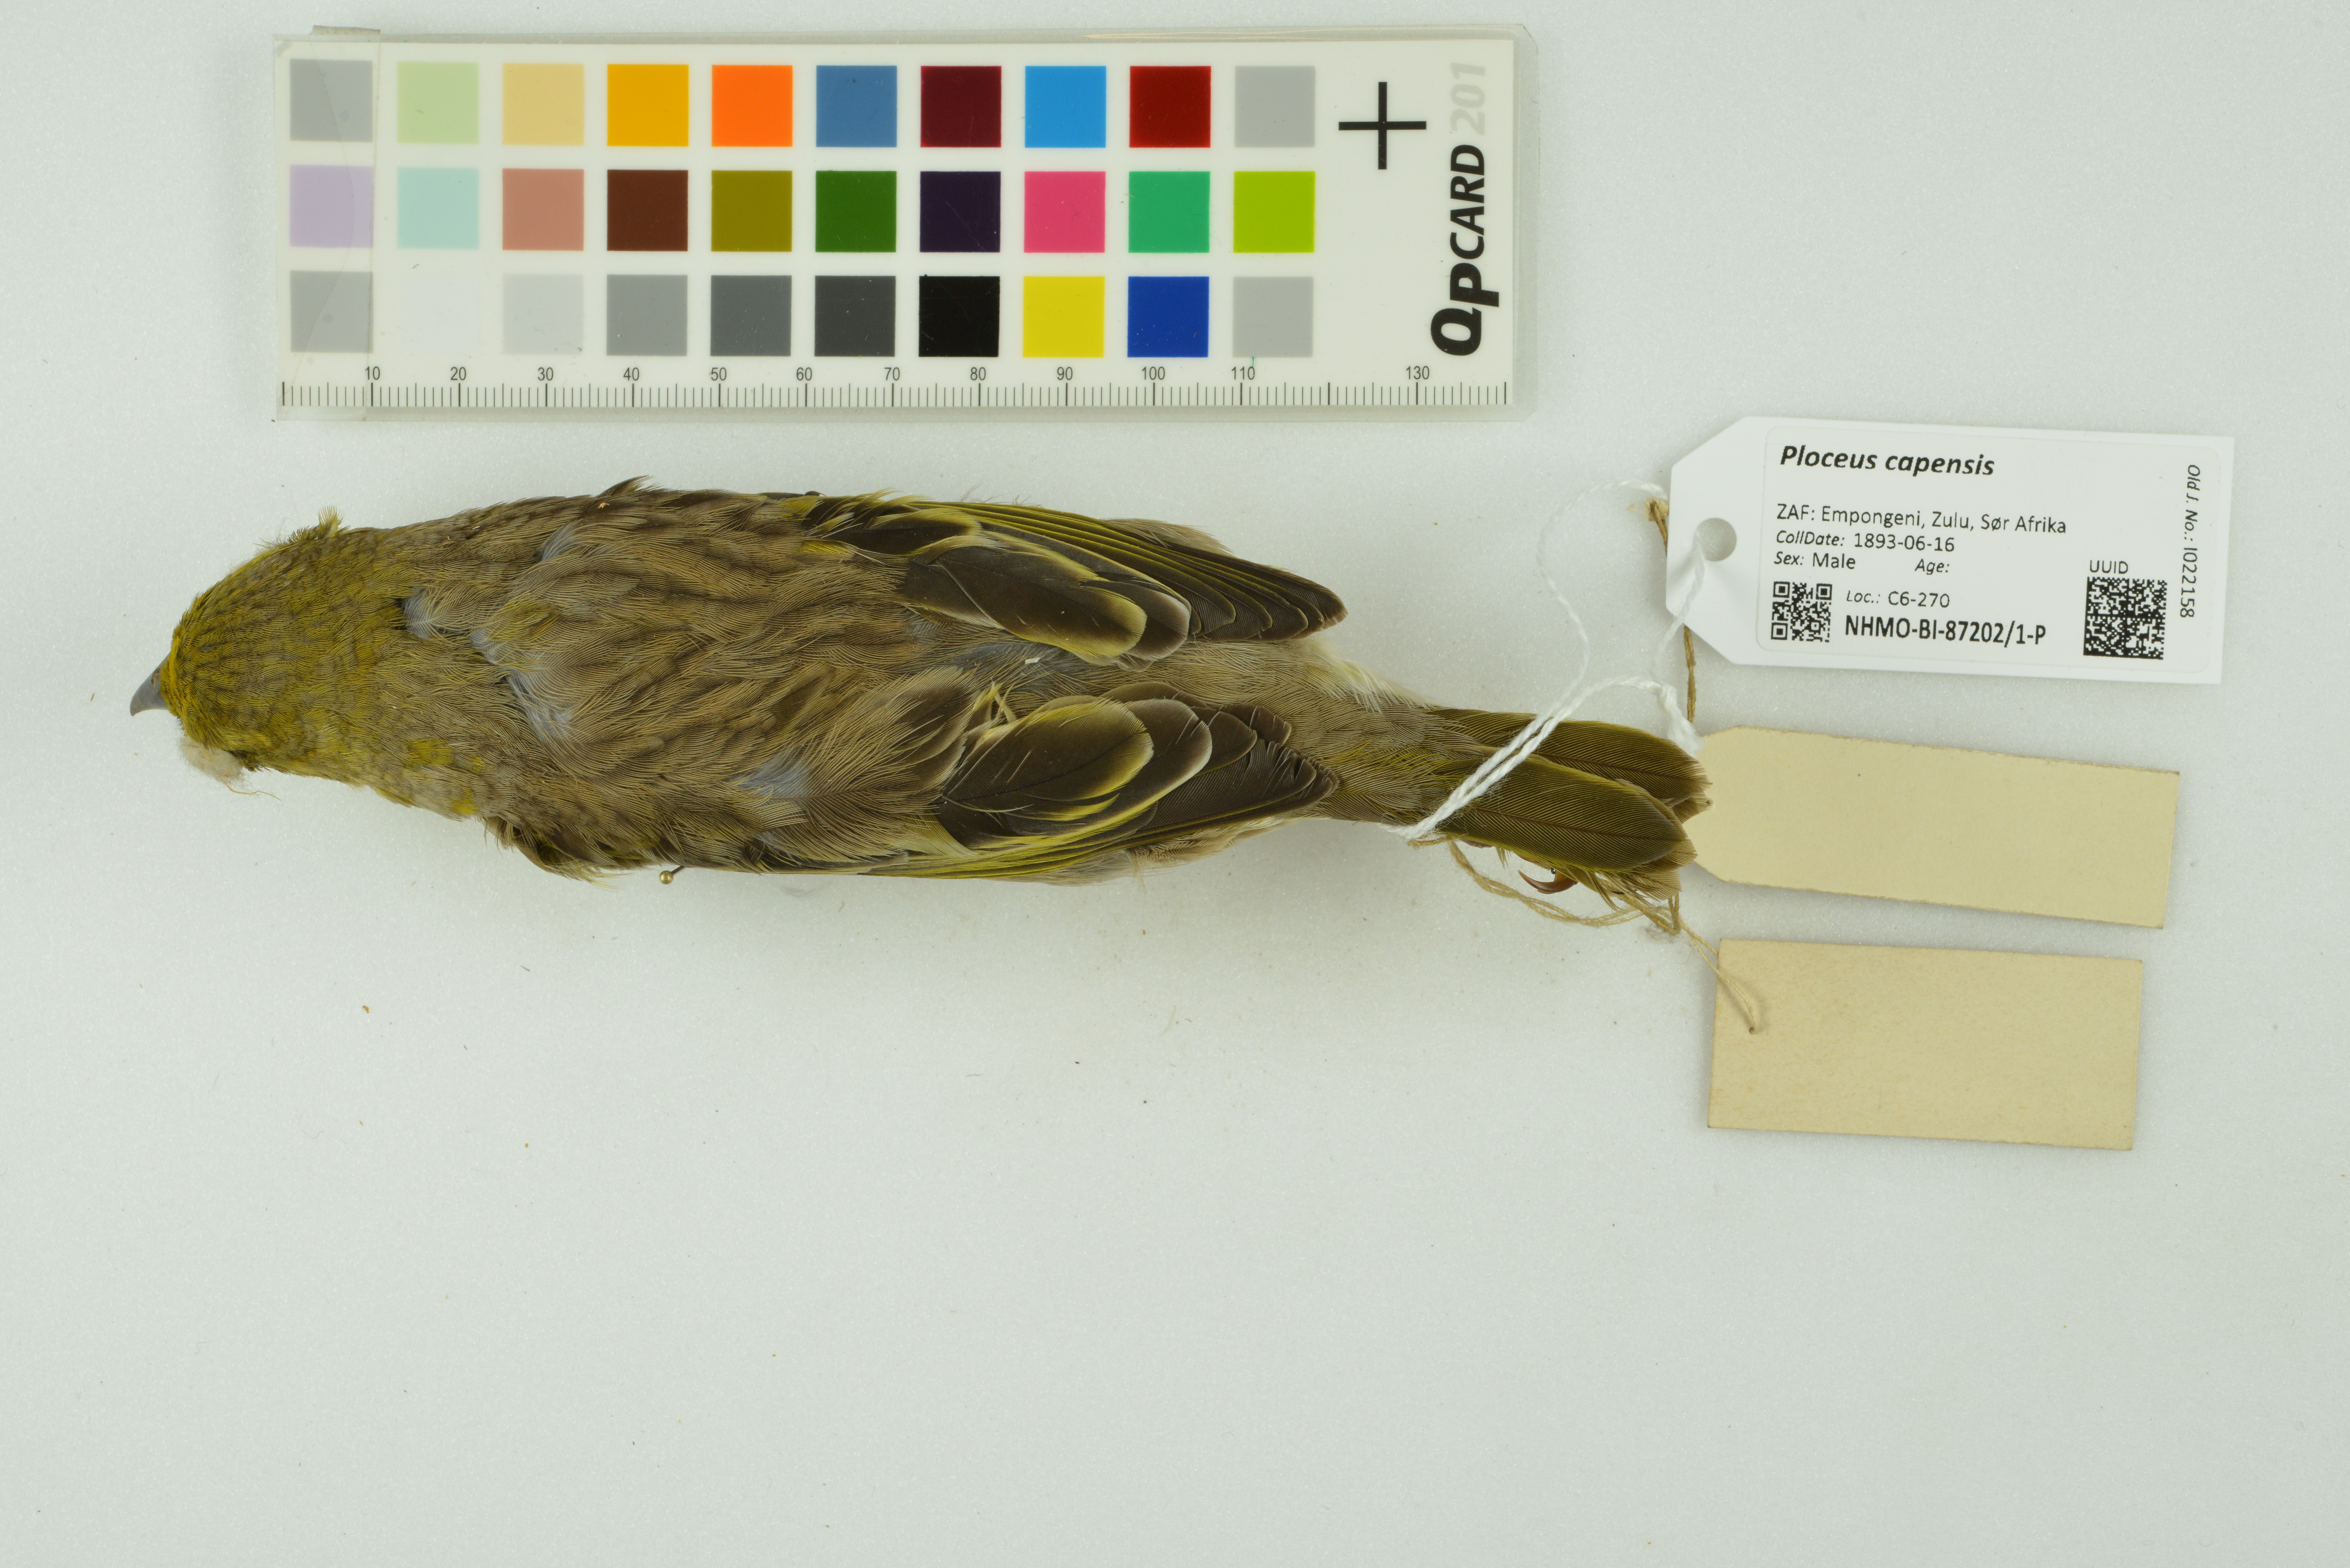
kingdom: Animalia
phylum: Chordata
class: Aves
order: Passeriformes
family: Ploceidae
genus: Ploceus
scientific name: Ploceus capensis
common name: Cape weaver
